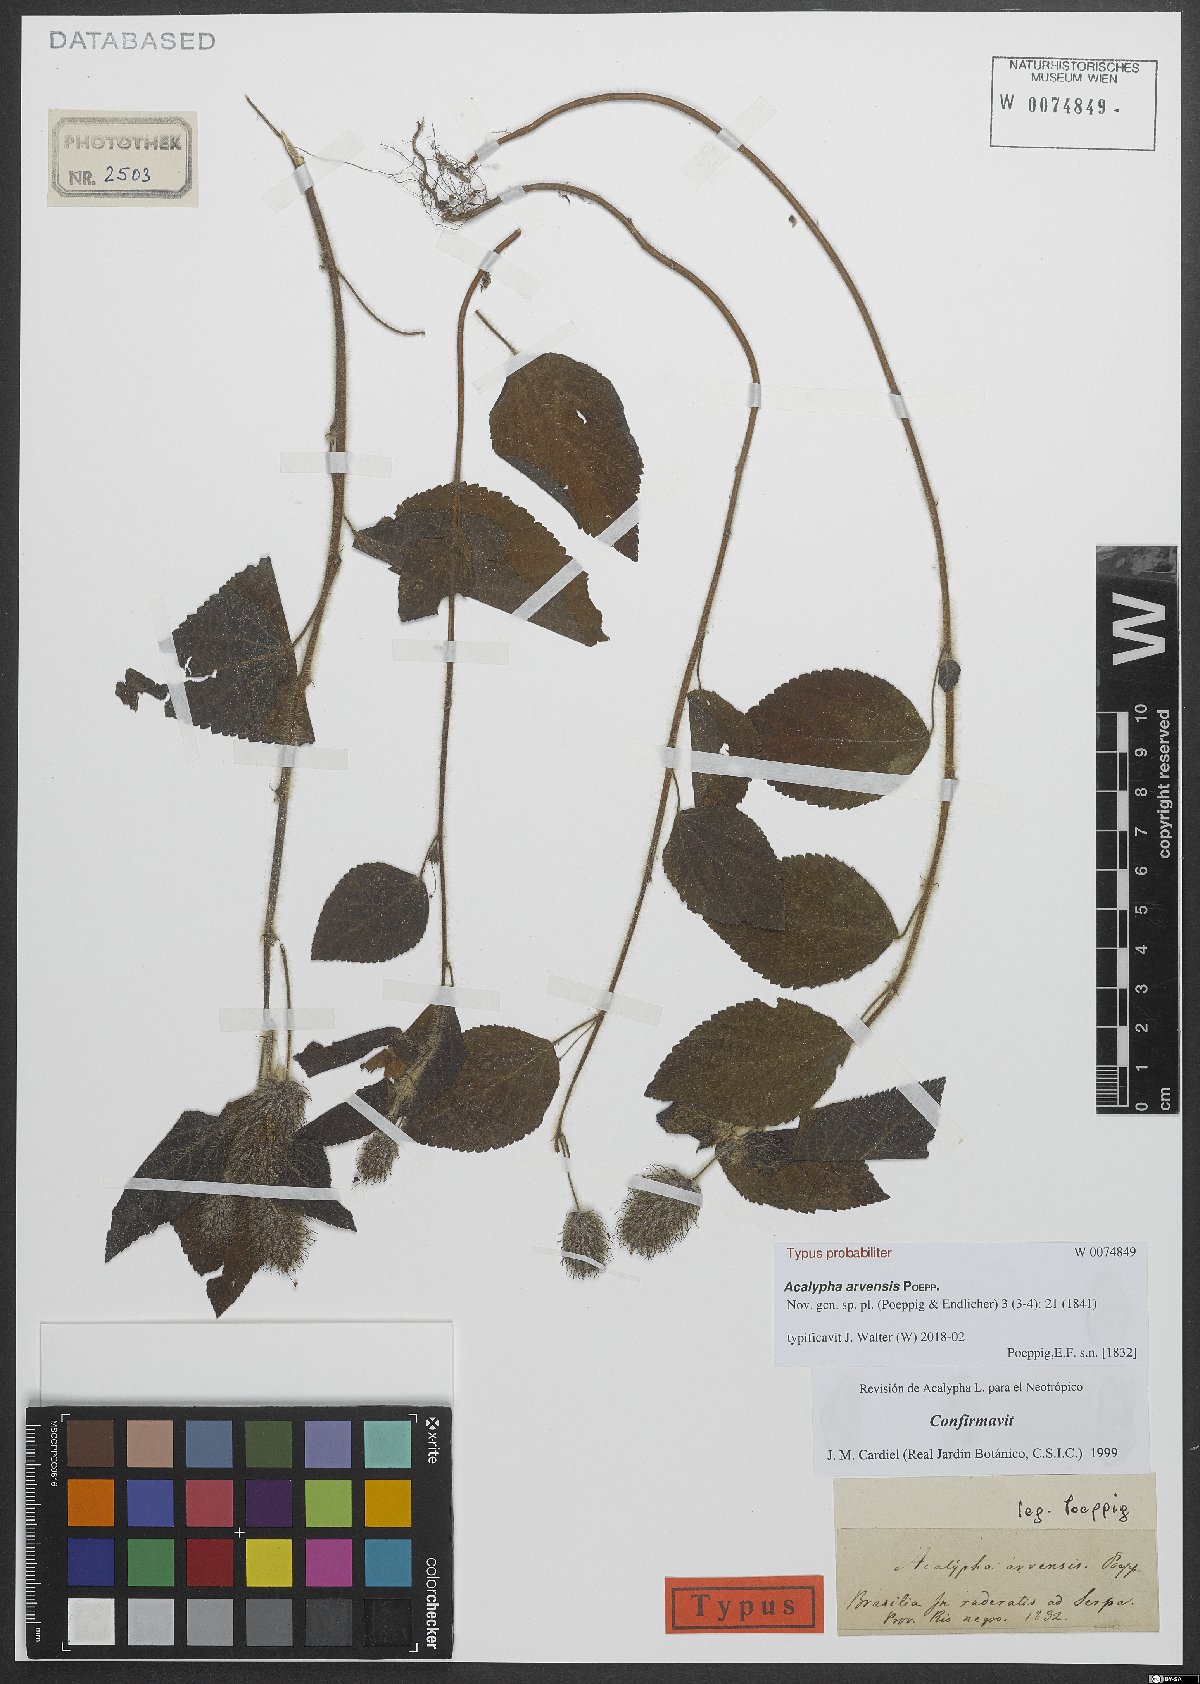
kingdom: Plantae
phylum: Tracheophyta
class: Magnoliopsida
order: Malpighiales
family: Euphorbiaceae
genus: Acalypha
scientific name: Acalypha arvensis
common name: Field copperleaf
